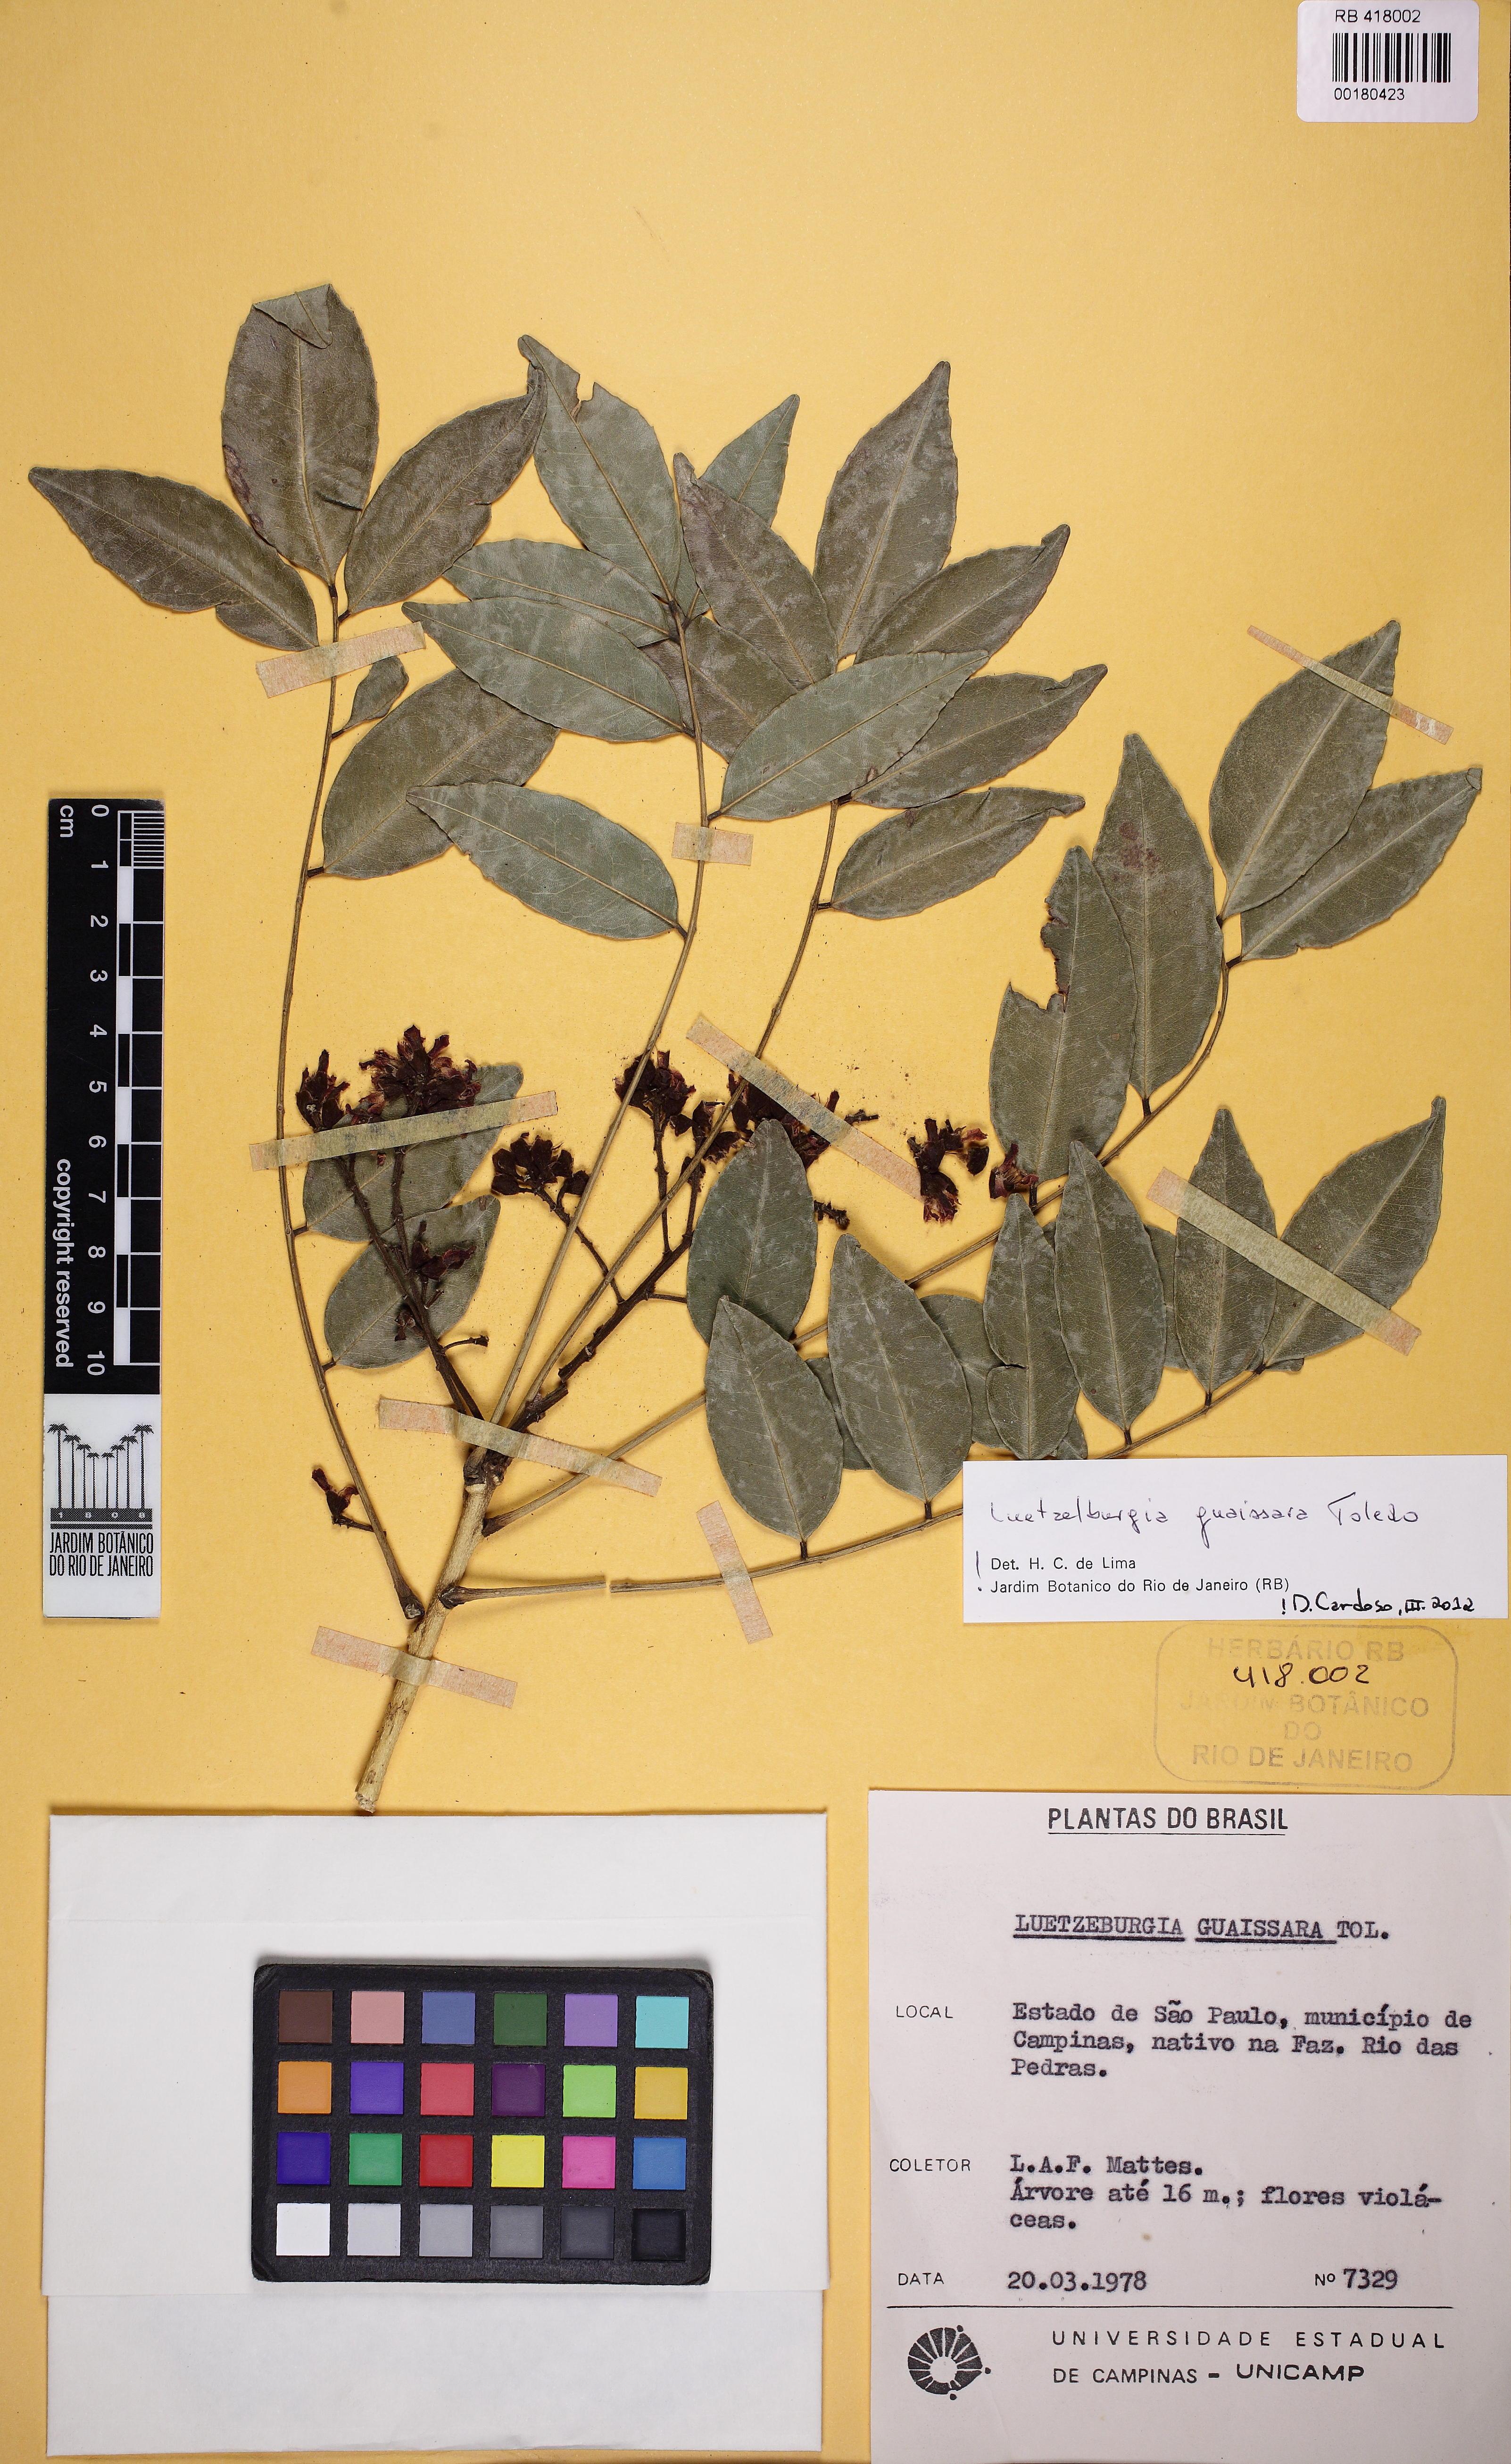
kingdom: Plantae
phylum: Tracheophyta
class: Magnoliopsida
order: Fabales
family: Fabaceae
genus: Luetzelburgia
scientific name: Luetzelburgia guaissara
